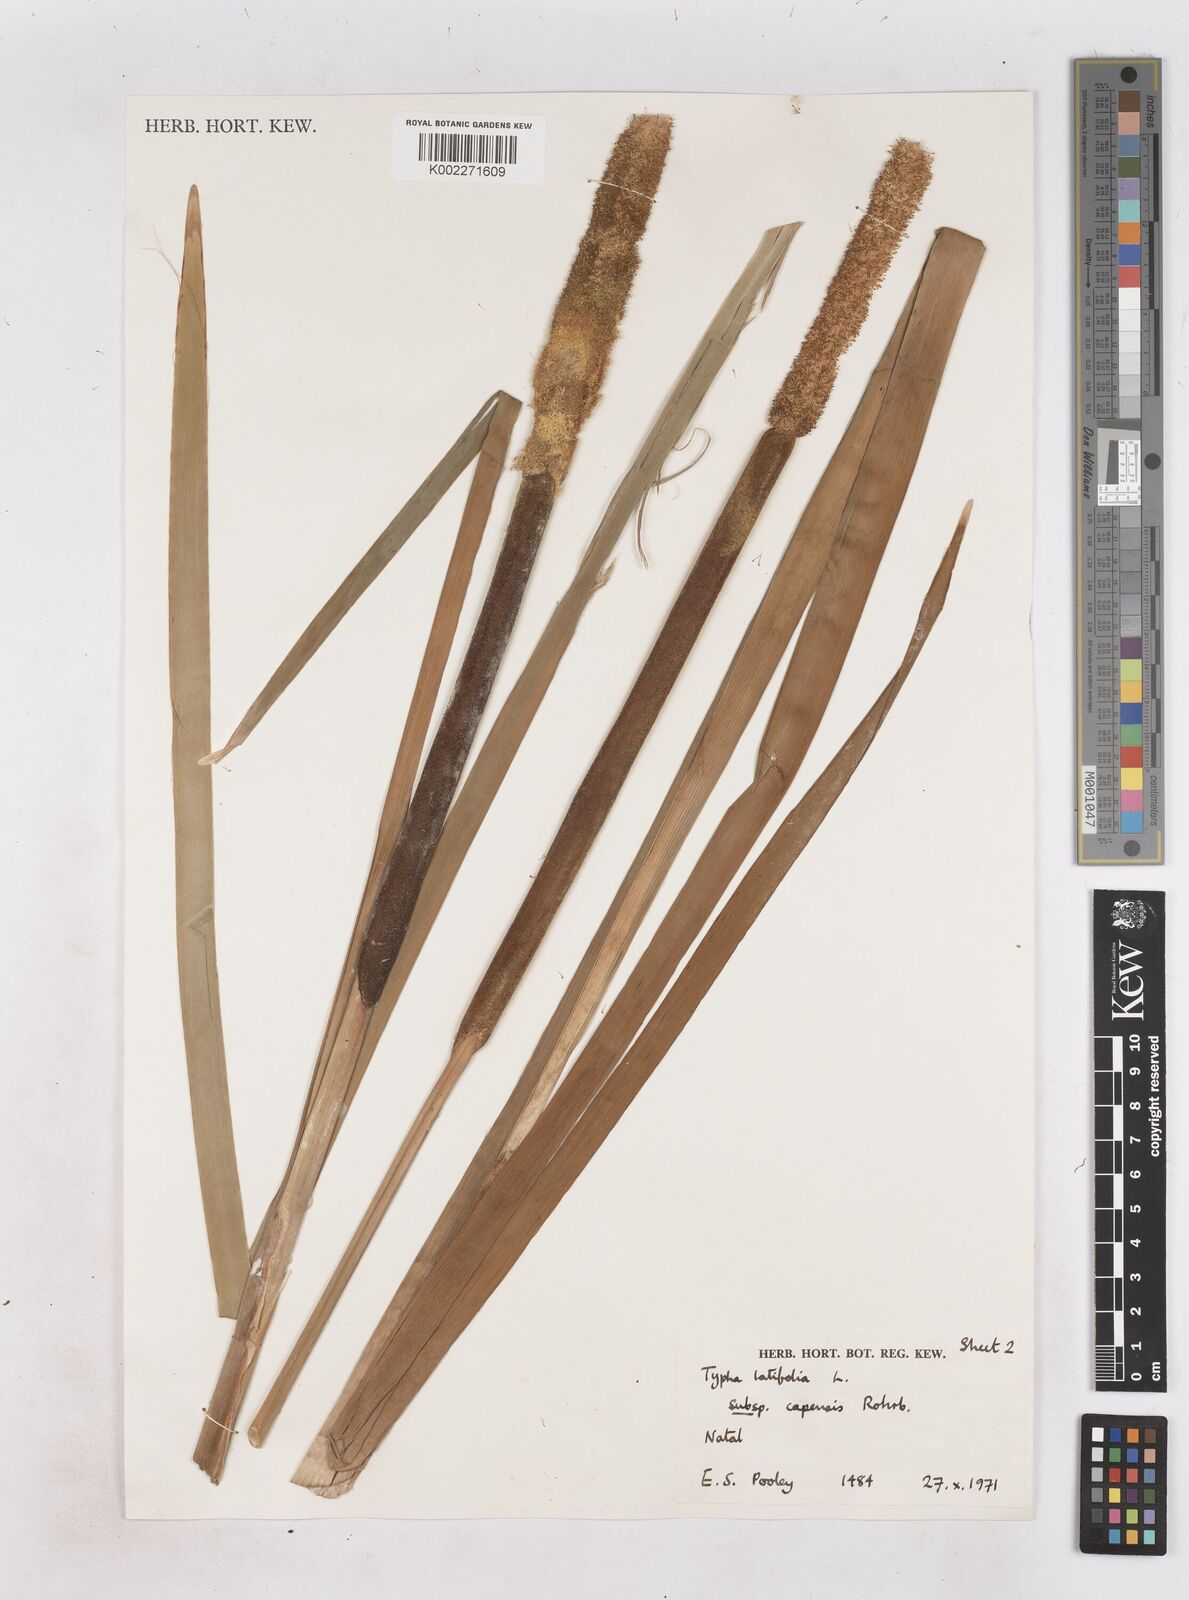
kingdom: Plantae
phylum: Tracheophyta
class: Liliopsida
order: Poales
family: Typhaceae
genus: Typha
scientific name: Typha capensis
